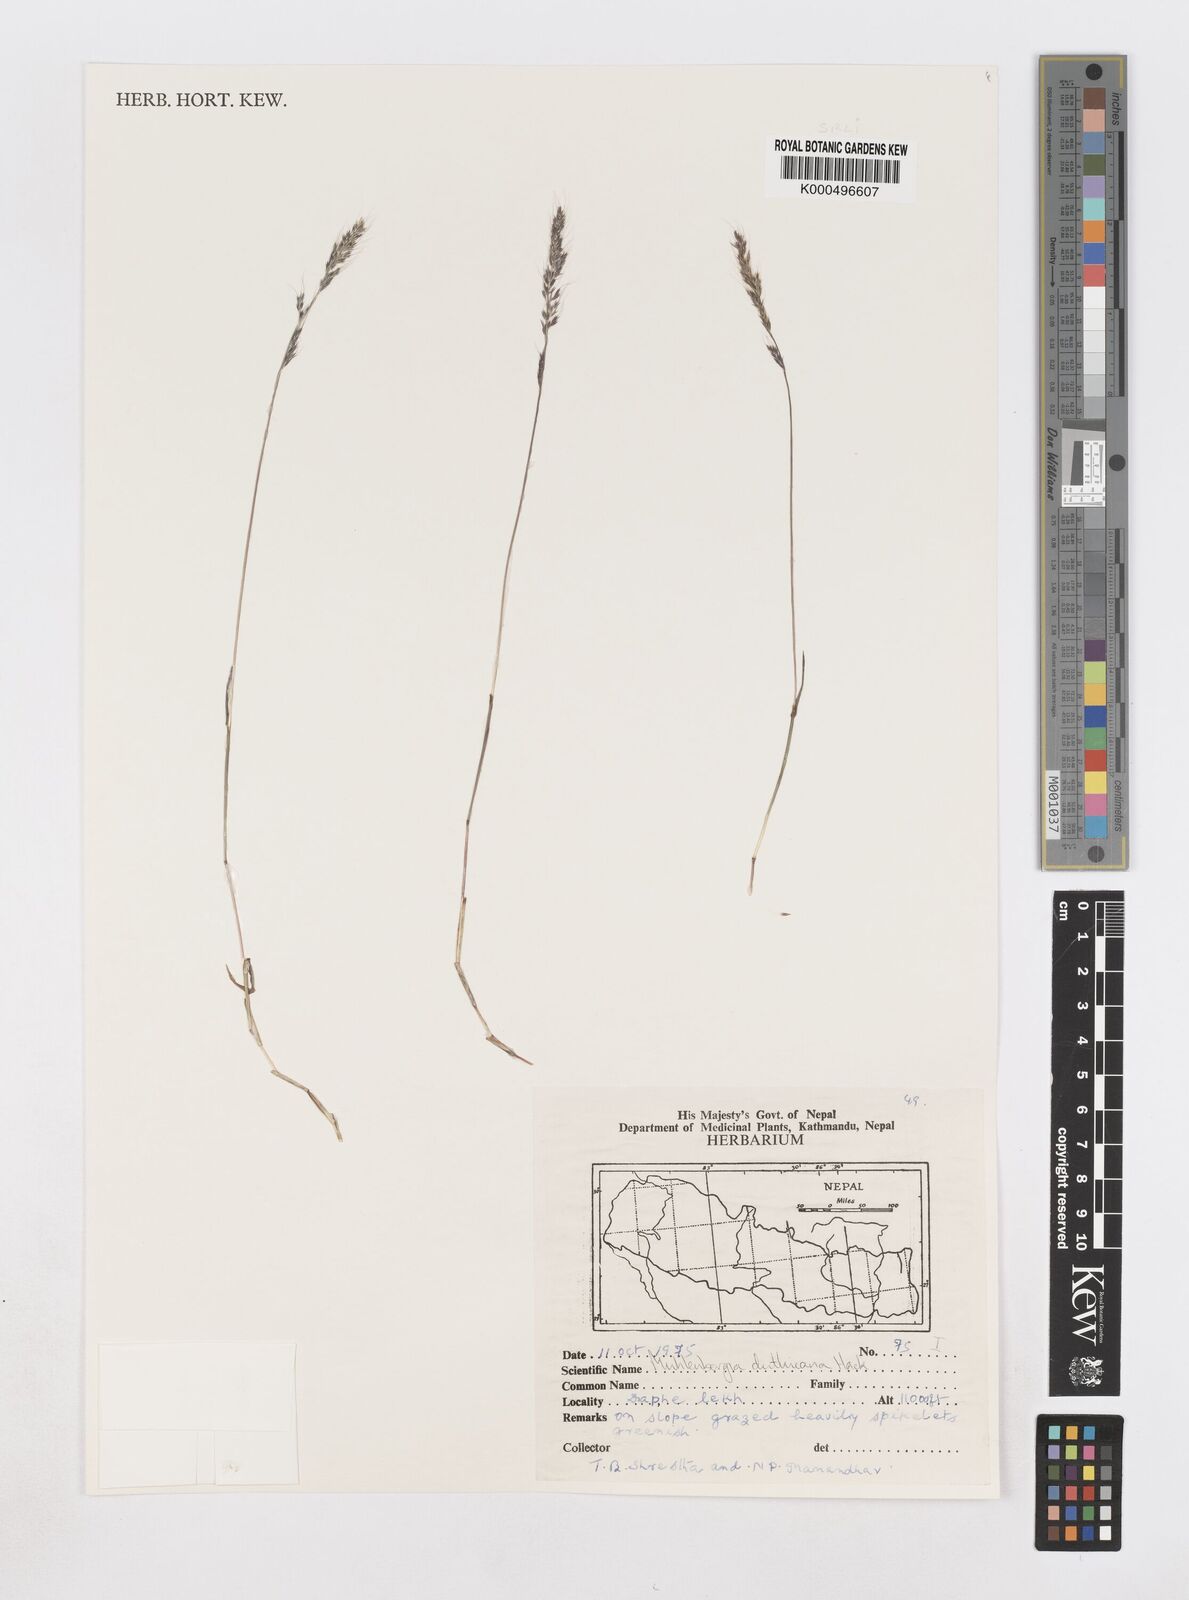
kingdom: Plantae
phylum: Tracheophyta
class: Liliopsida
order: Poales
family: Poaceae
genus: Muhlenbergia
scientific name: Muhlenbergia duthieana
